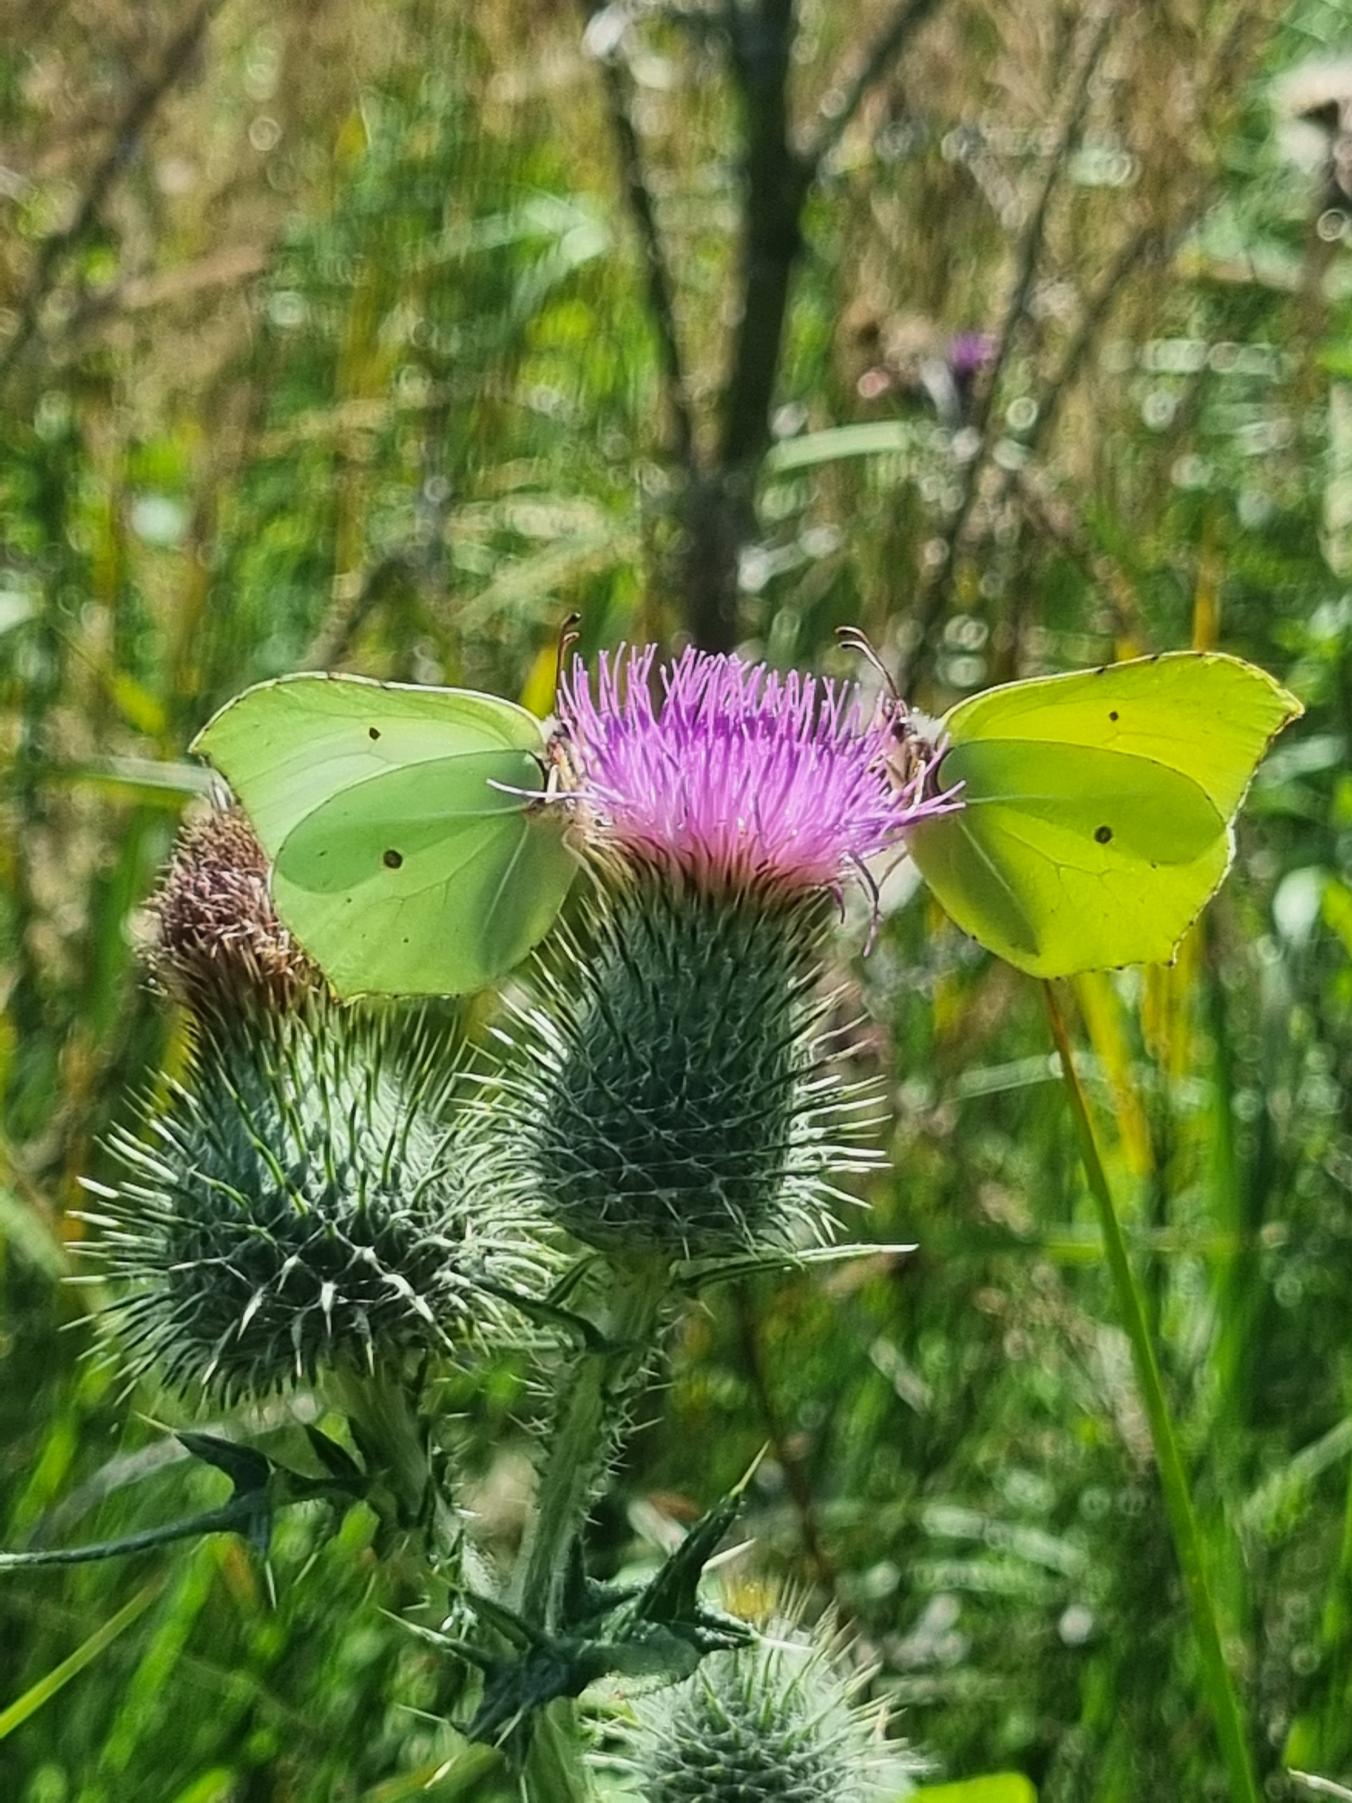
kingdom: Animalia
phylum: Arthropoda
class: Insecta
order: Lepidoptera
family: Pieridae
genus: Gonepteryx
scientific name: Gonepteryx rhamni
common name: Citronsommerfugl
